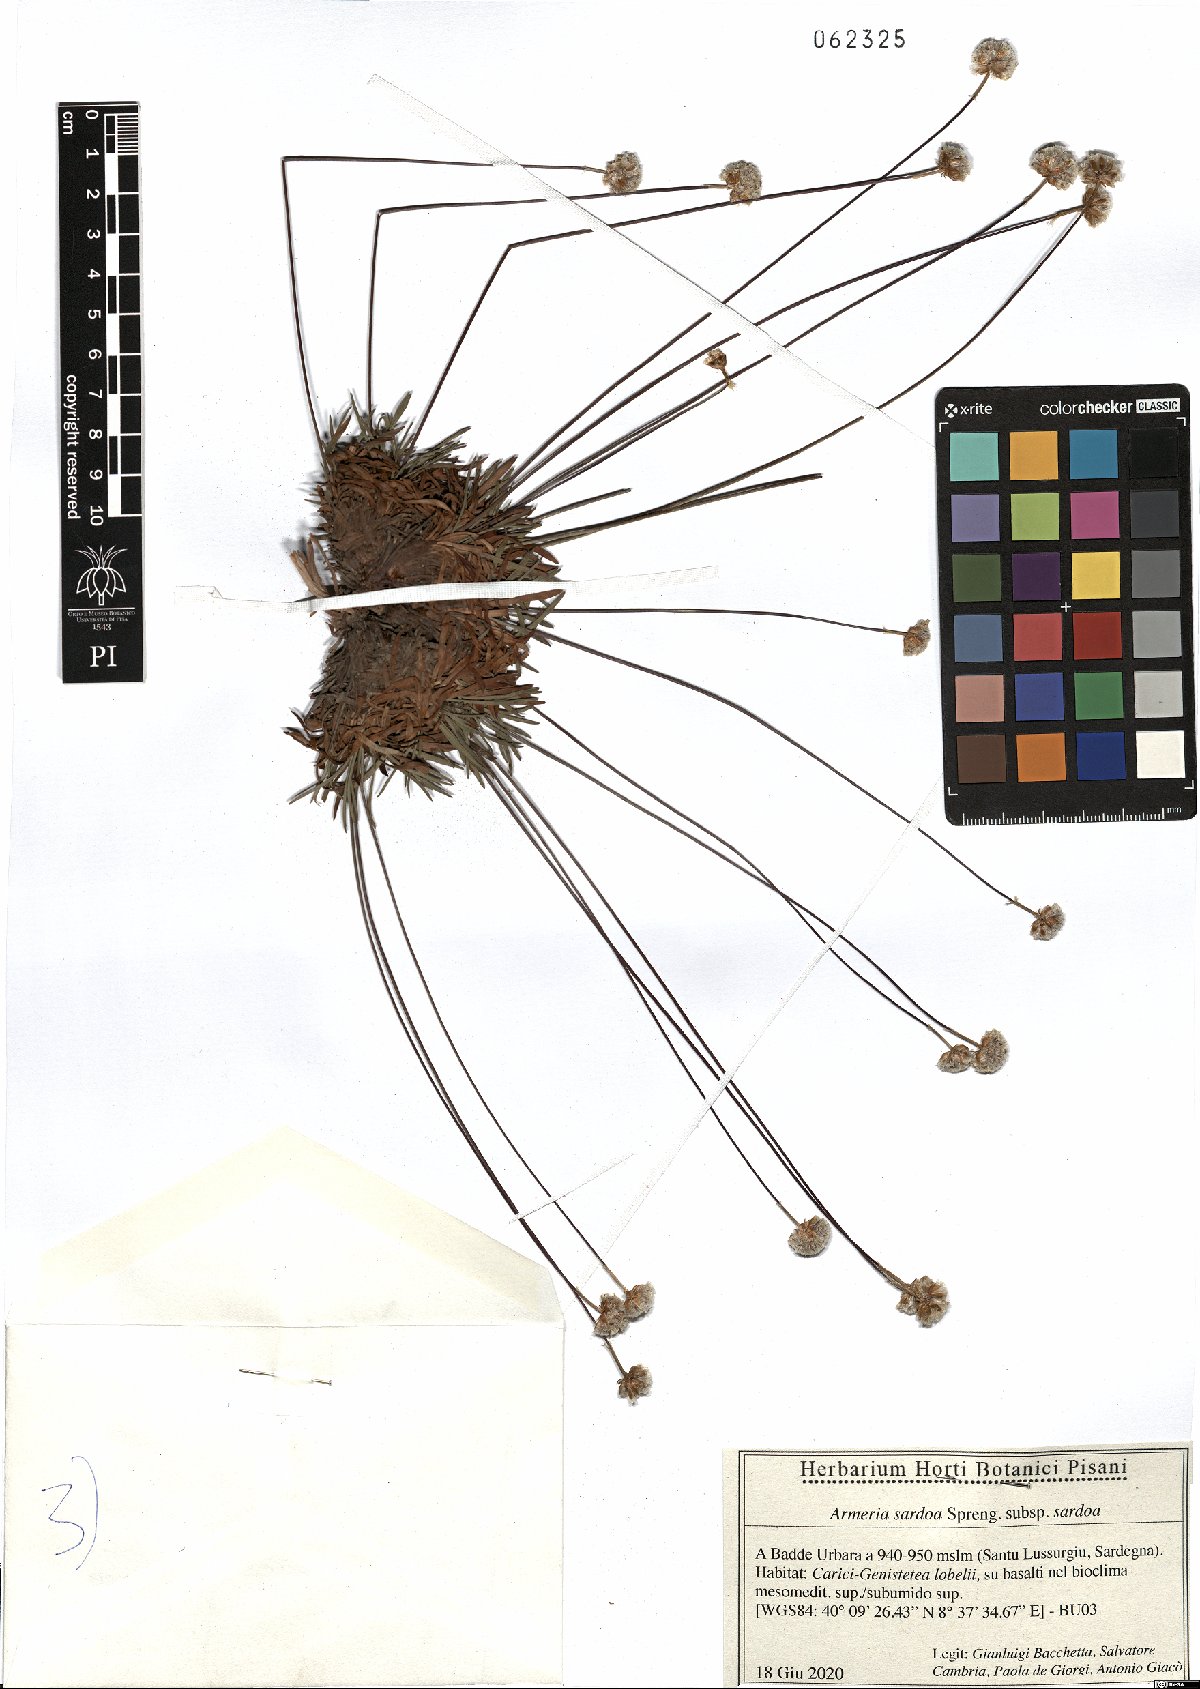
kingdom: Plantae
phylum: Tracheophyta
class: Magnoliopsida
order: Caryophyllales
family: Plumbaginaceae
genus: Armeria
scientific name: Armeria sardoa
